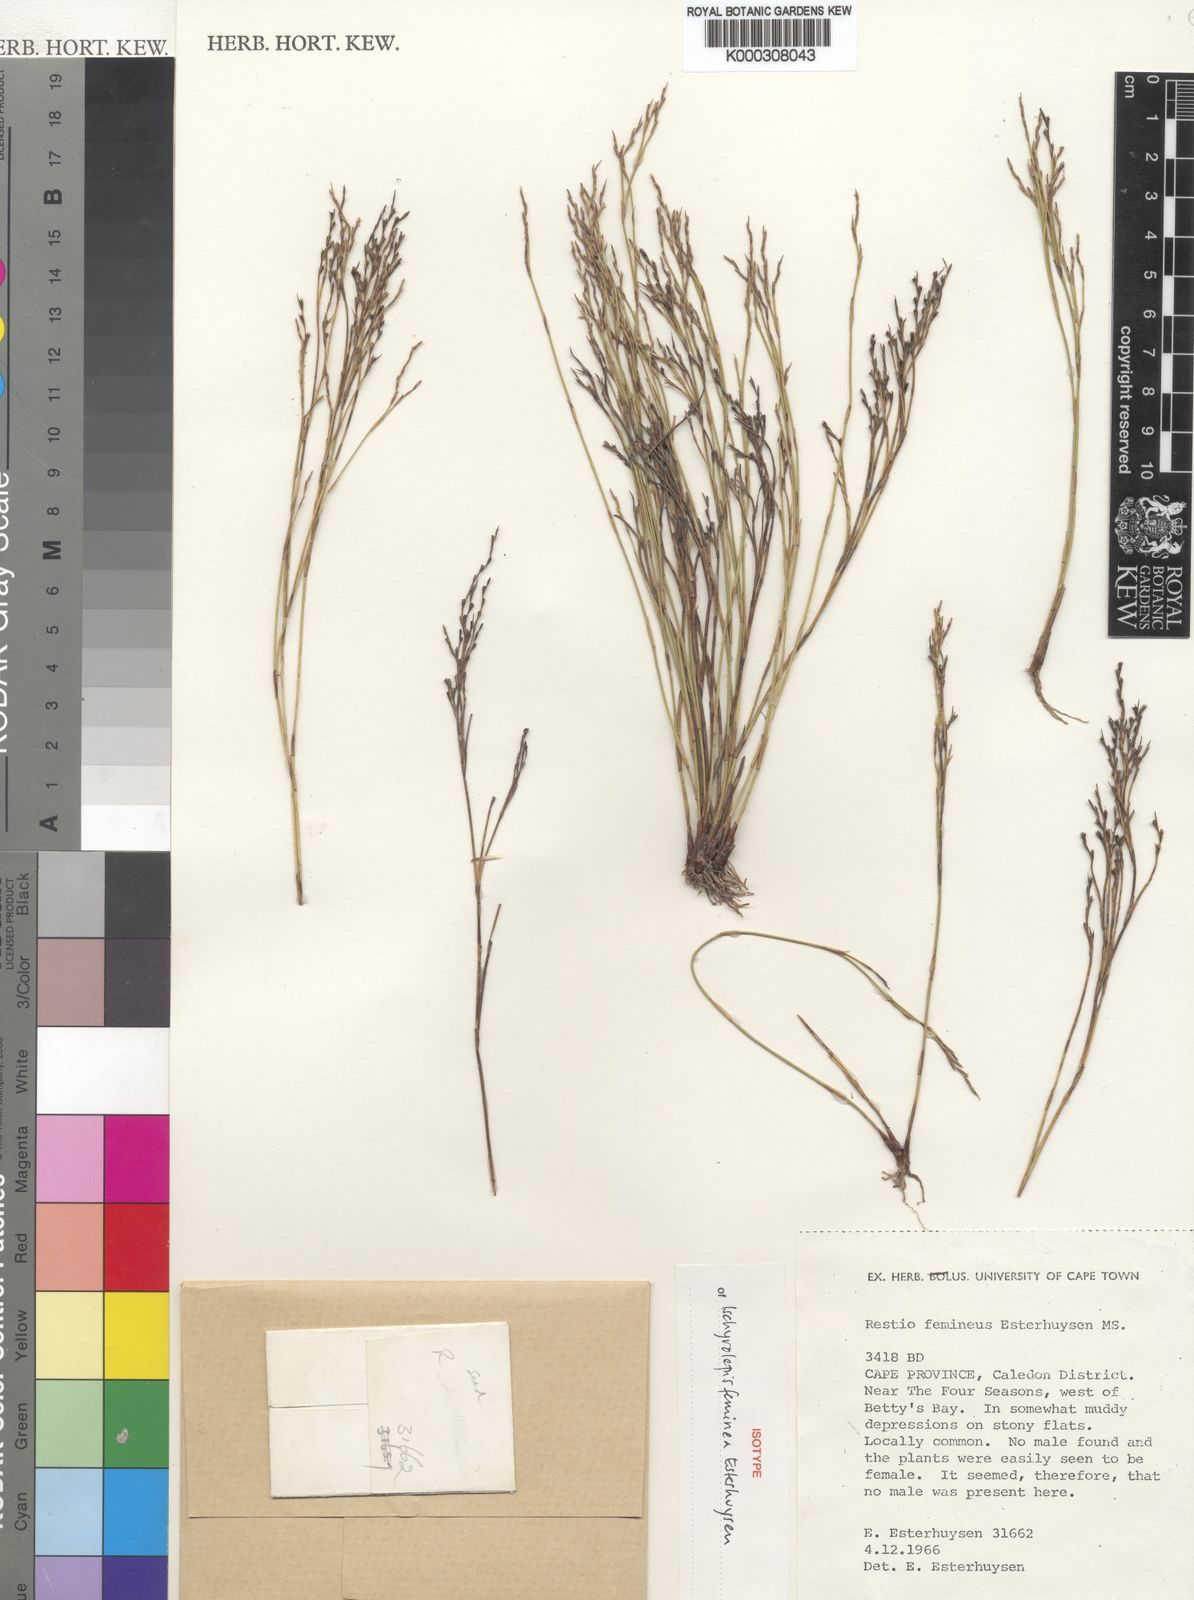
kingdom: Plantae
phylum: Tracheophyta
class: Liliopsida
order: Poales
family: Restionaceae
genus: Restio
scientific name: Restio femineus
